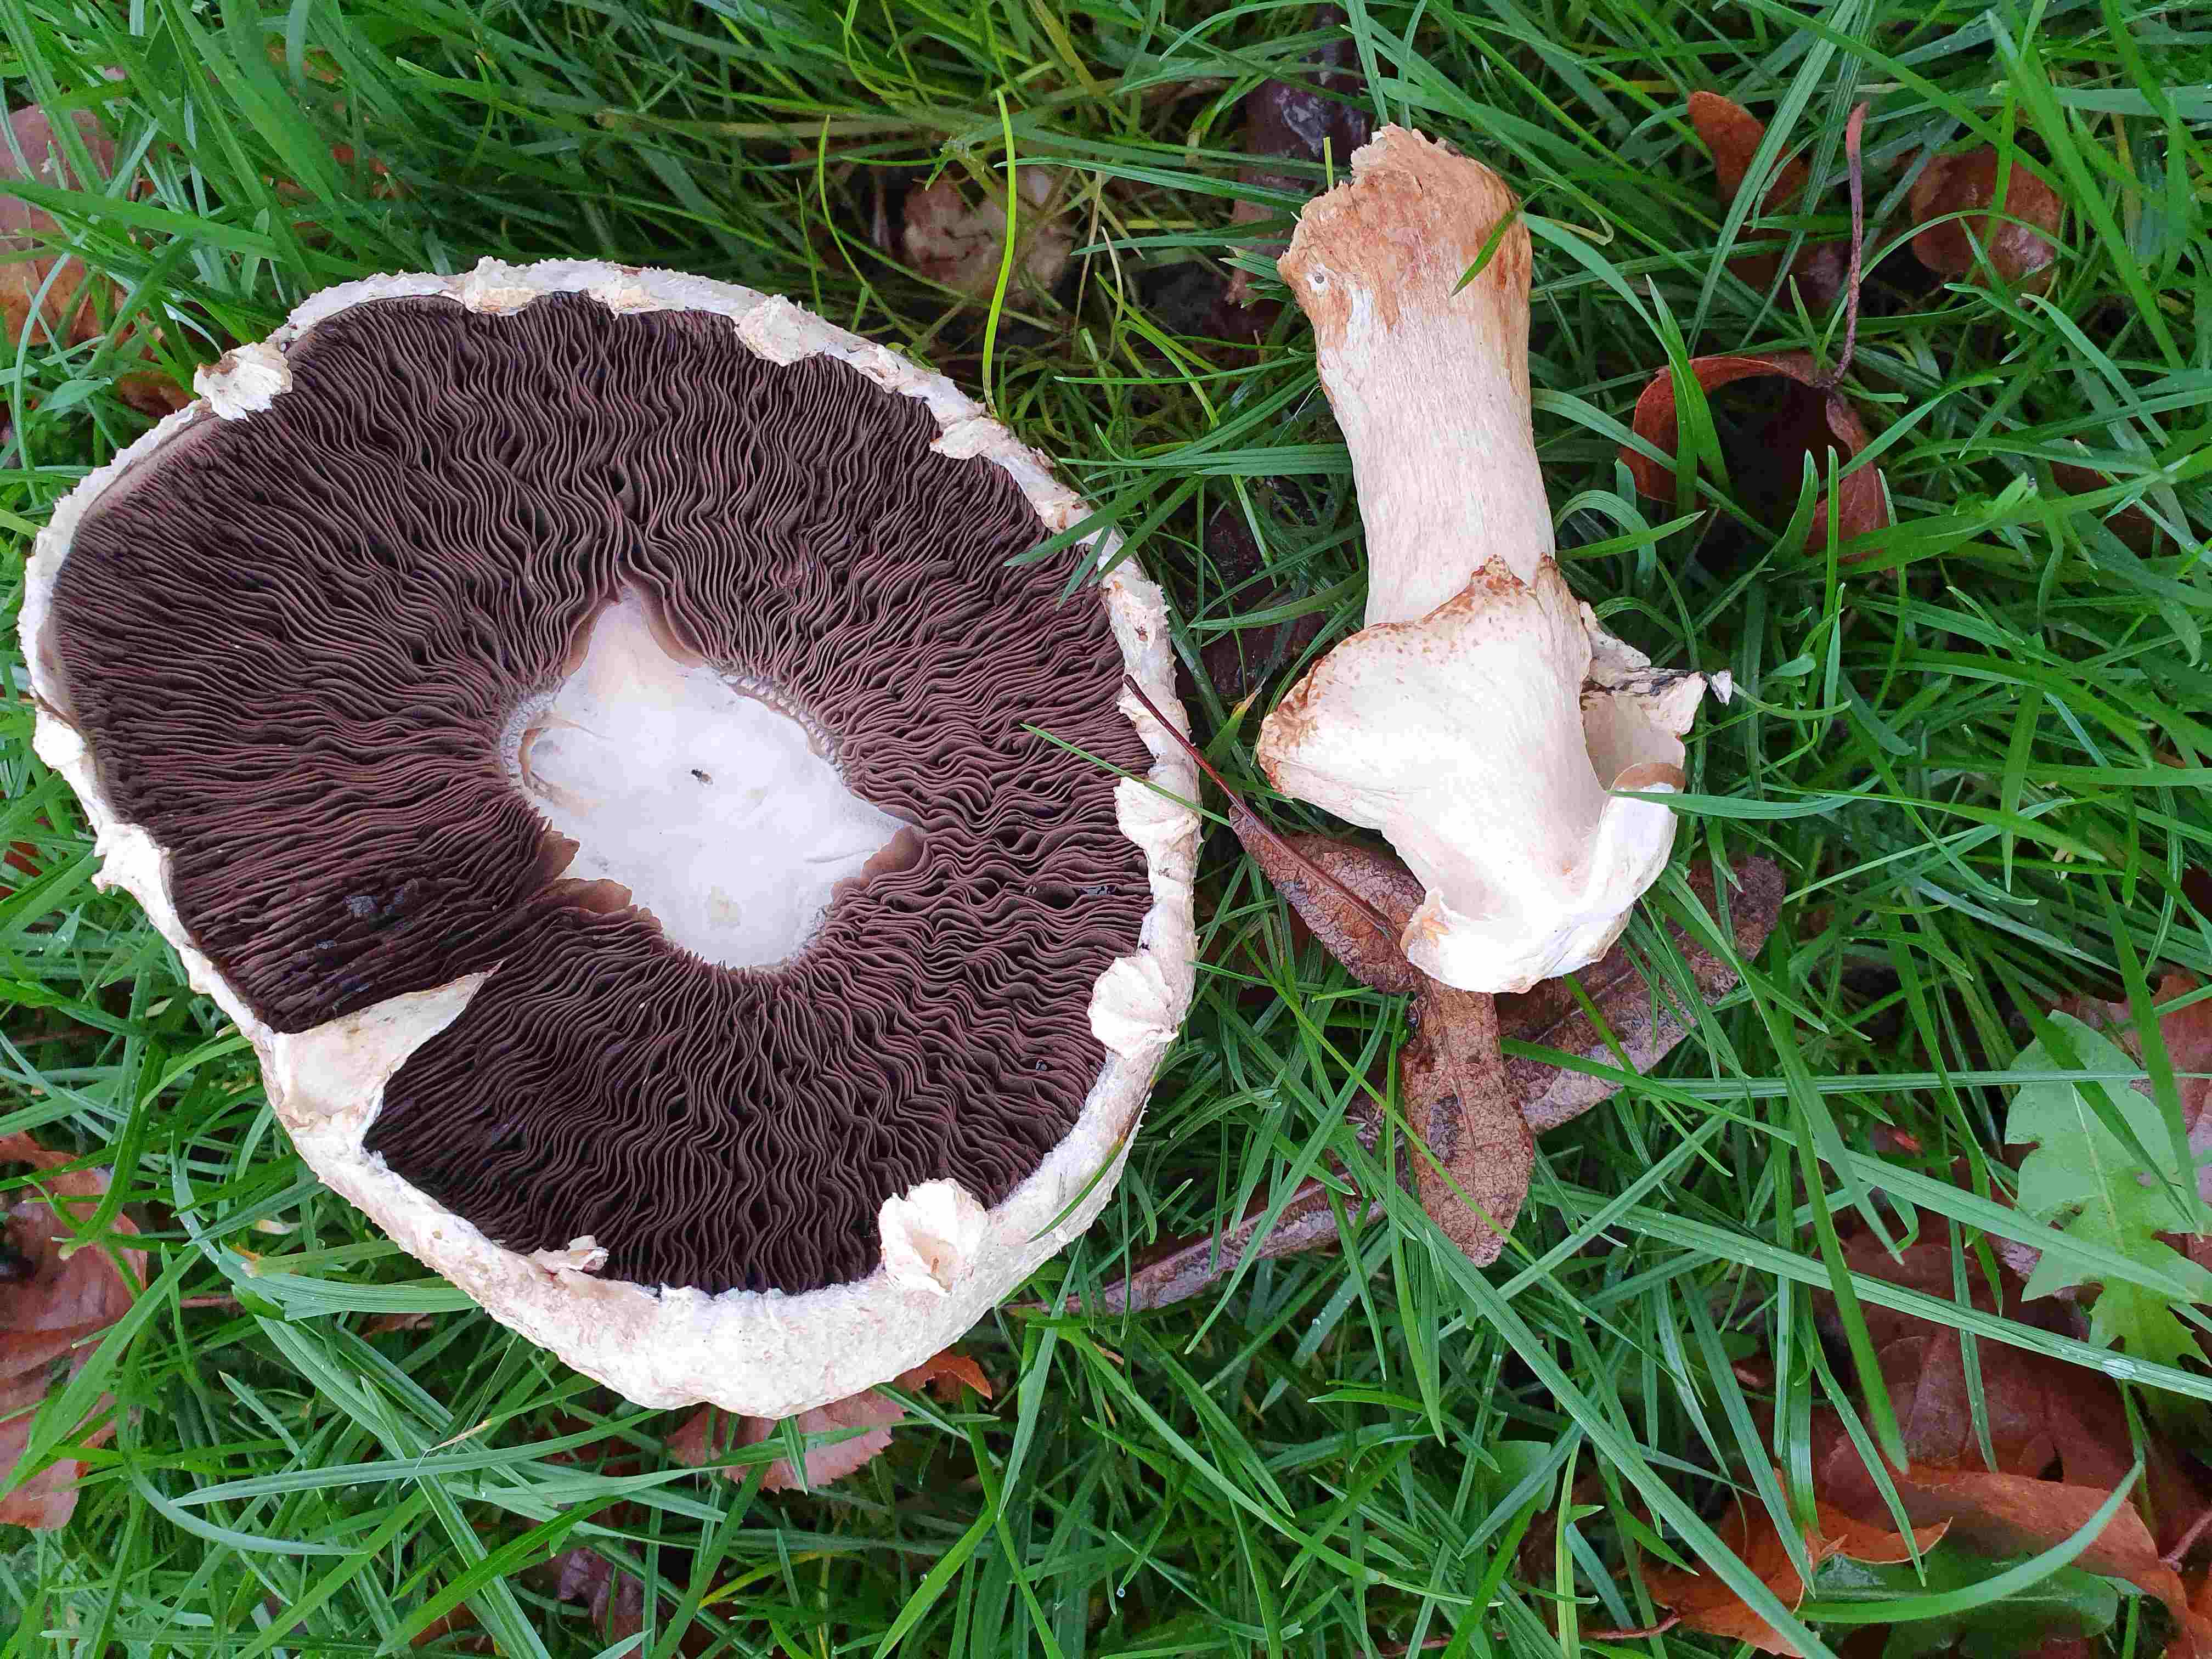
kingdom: Fungi
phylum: Basidiomycota
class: Agaricomycetes
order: Agaricales
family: Agaricaceae
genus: Agaricus
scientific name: Agaricus
